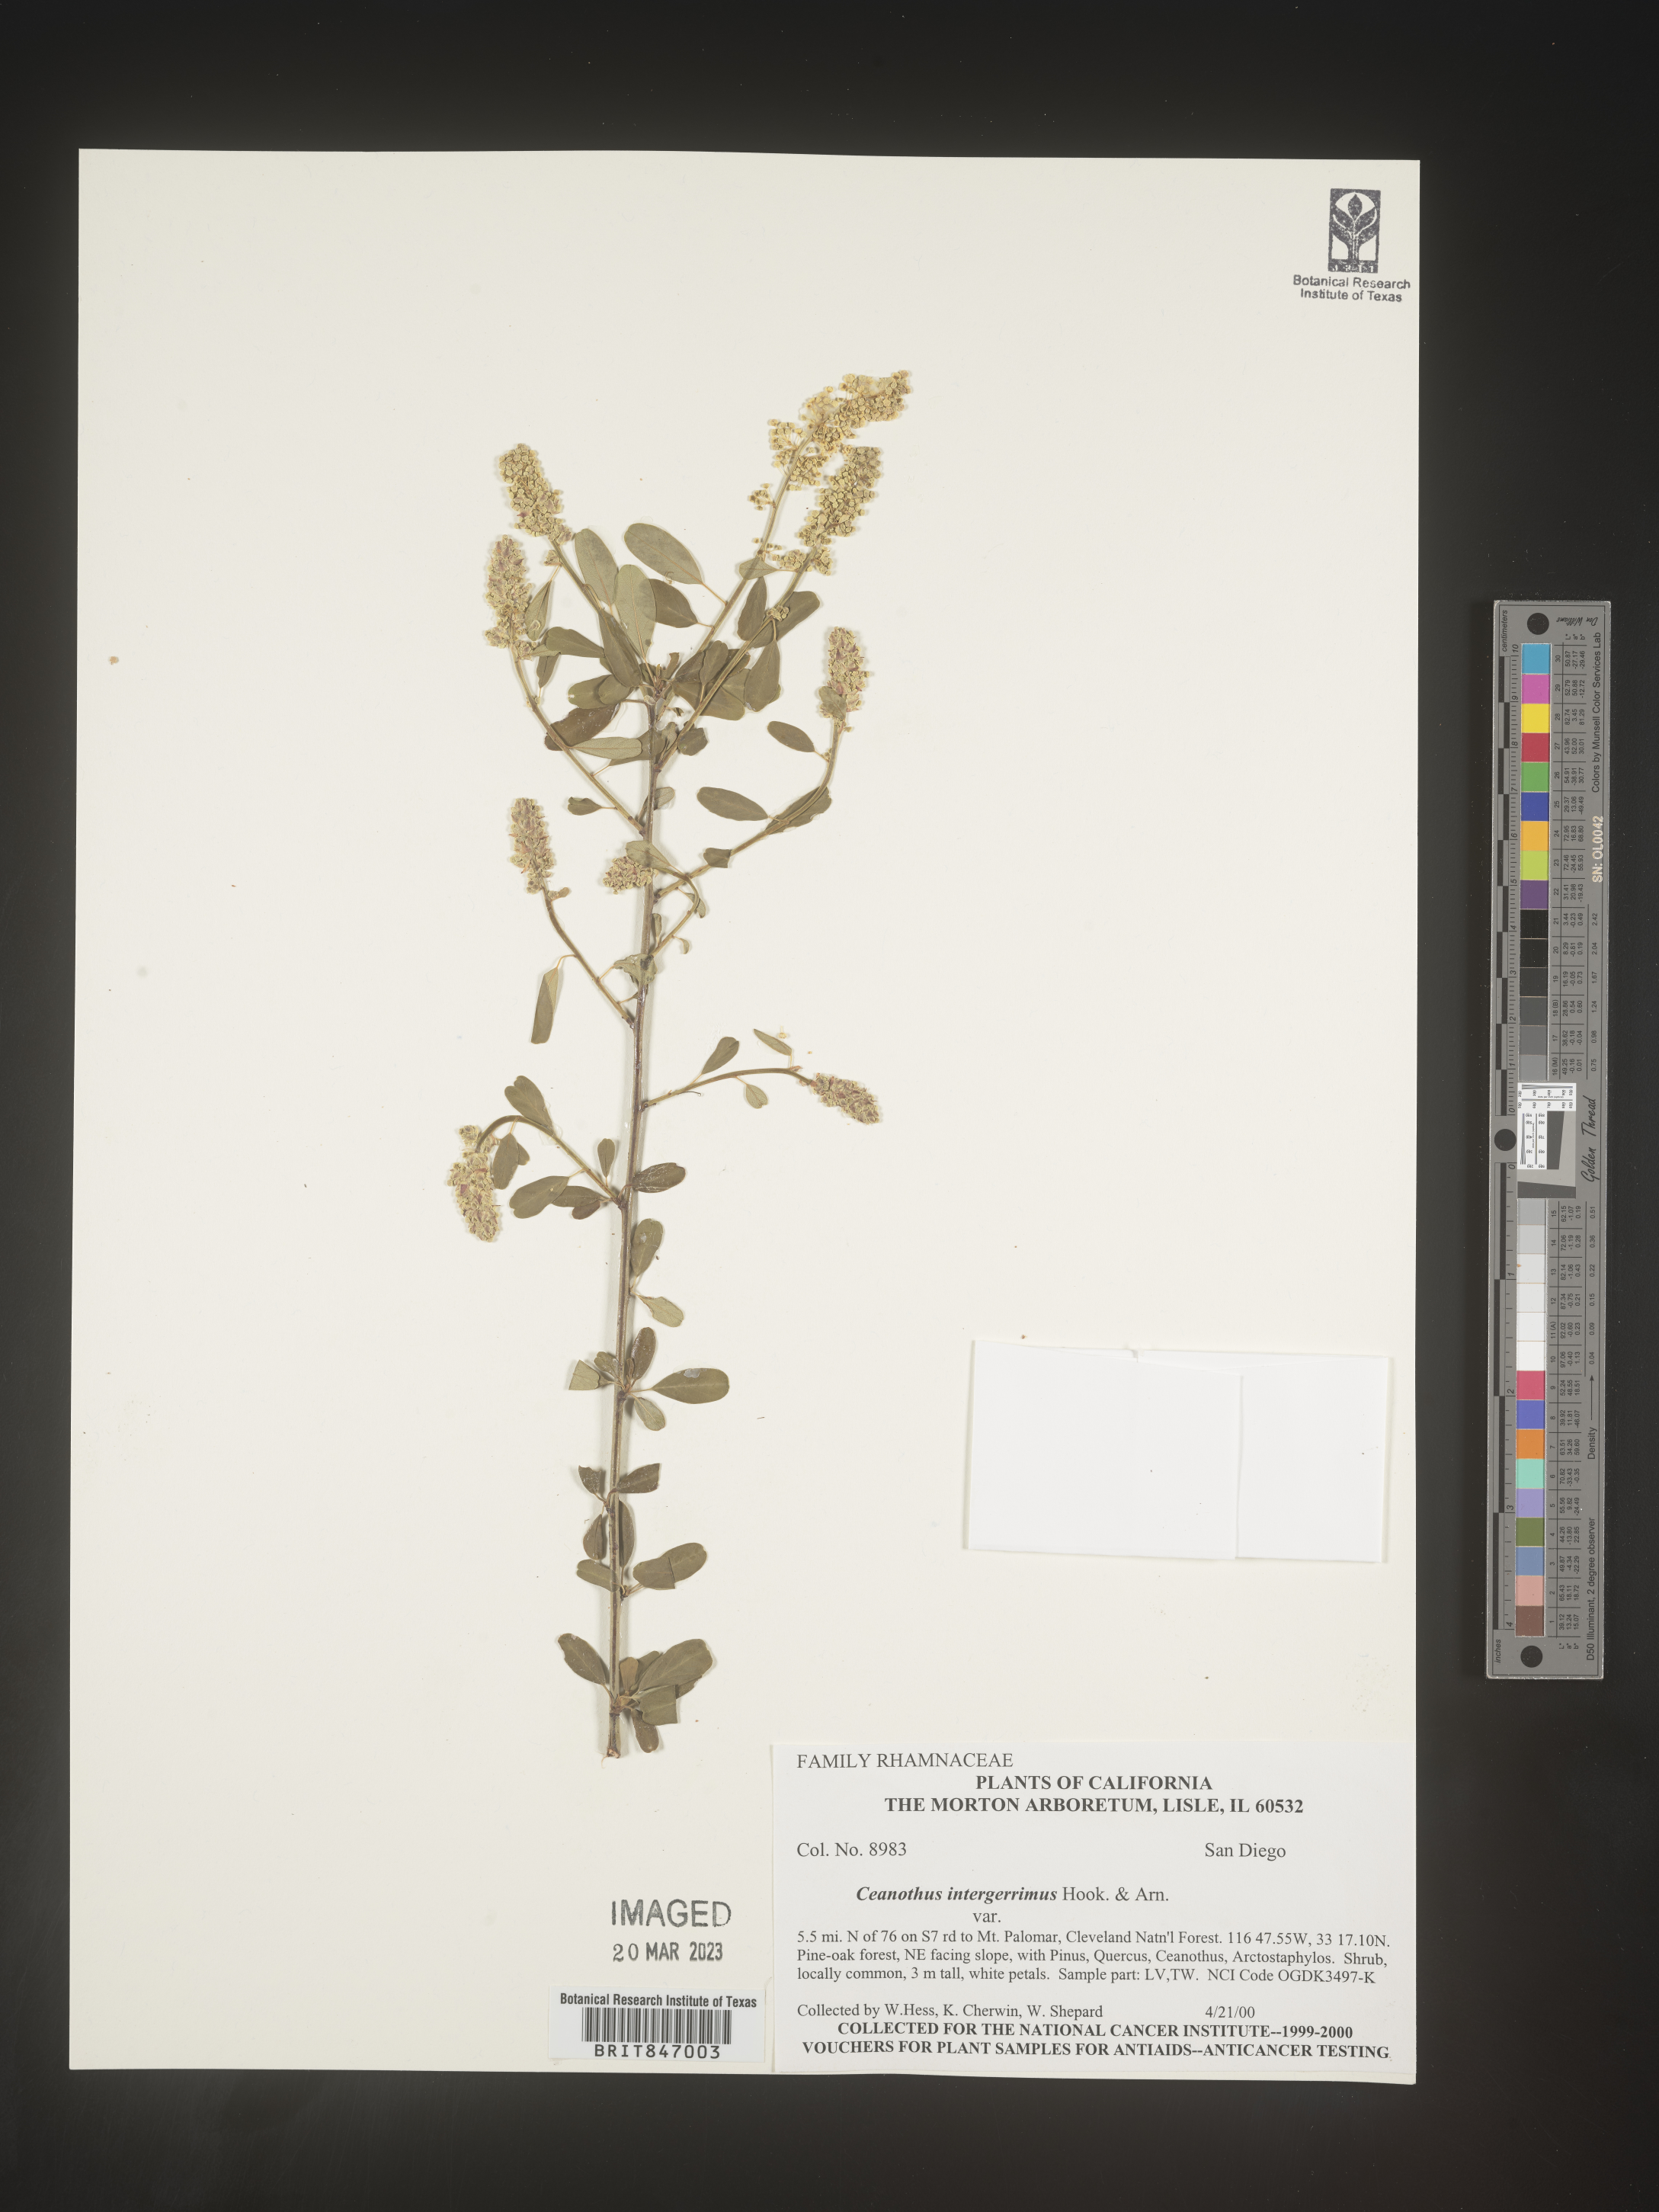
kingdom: Plantae
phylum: Tracheophyta
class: Magnoliopsida
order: Rosales
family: Rhamnaceae
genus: Ceanothus
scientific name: Ceanothus integerrimus
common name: Deerbrush ceanothus
